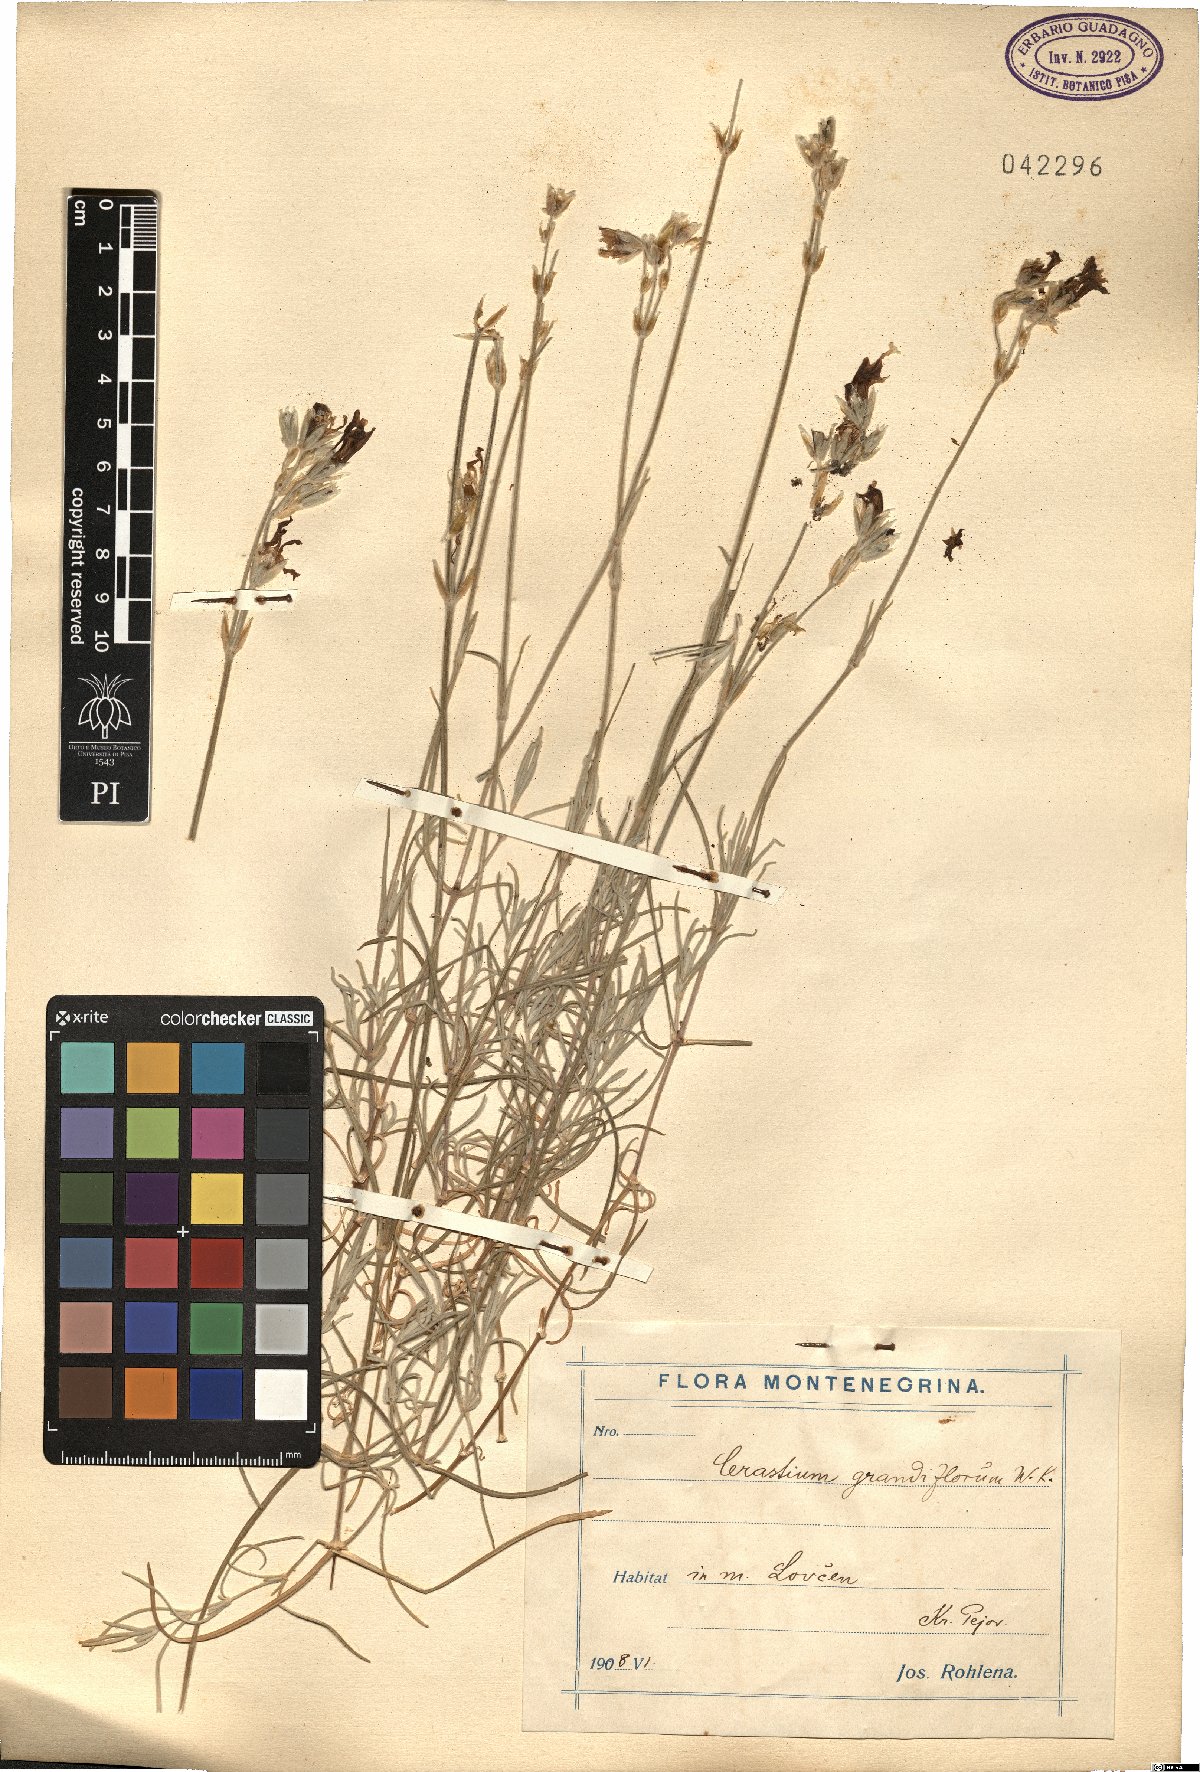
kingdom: Plantae
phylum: Tracheophyta
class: Magnoliopsida
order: Caryophyllales
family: Caryophyllaceae
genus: Cerastium
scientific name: Cerastium grandiflorum
